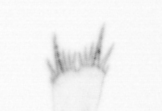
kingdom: Animalia
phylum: Arthropoda
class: Copepoda
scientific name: Copepoda
